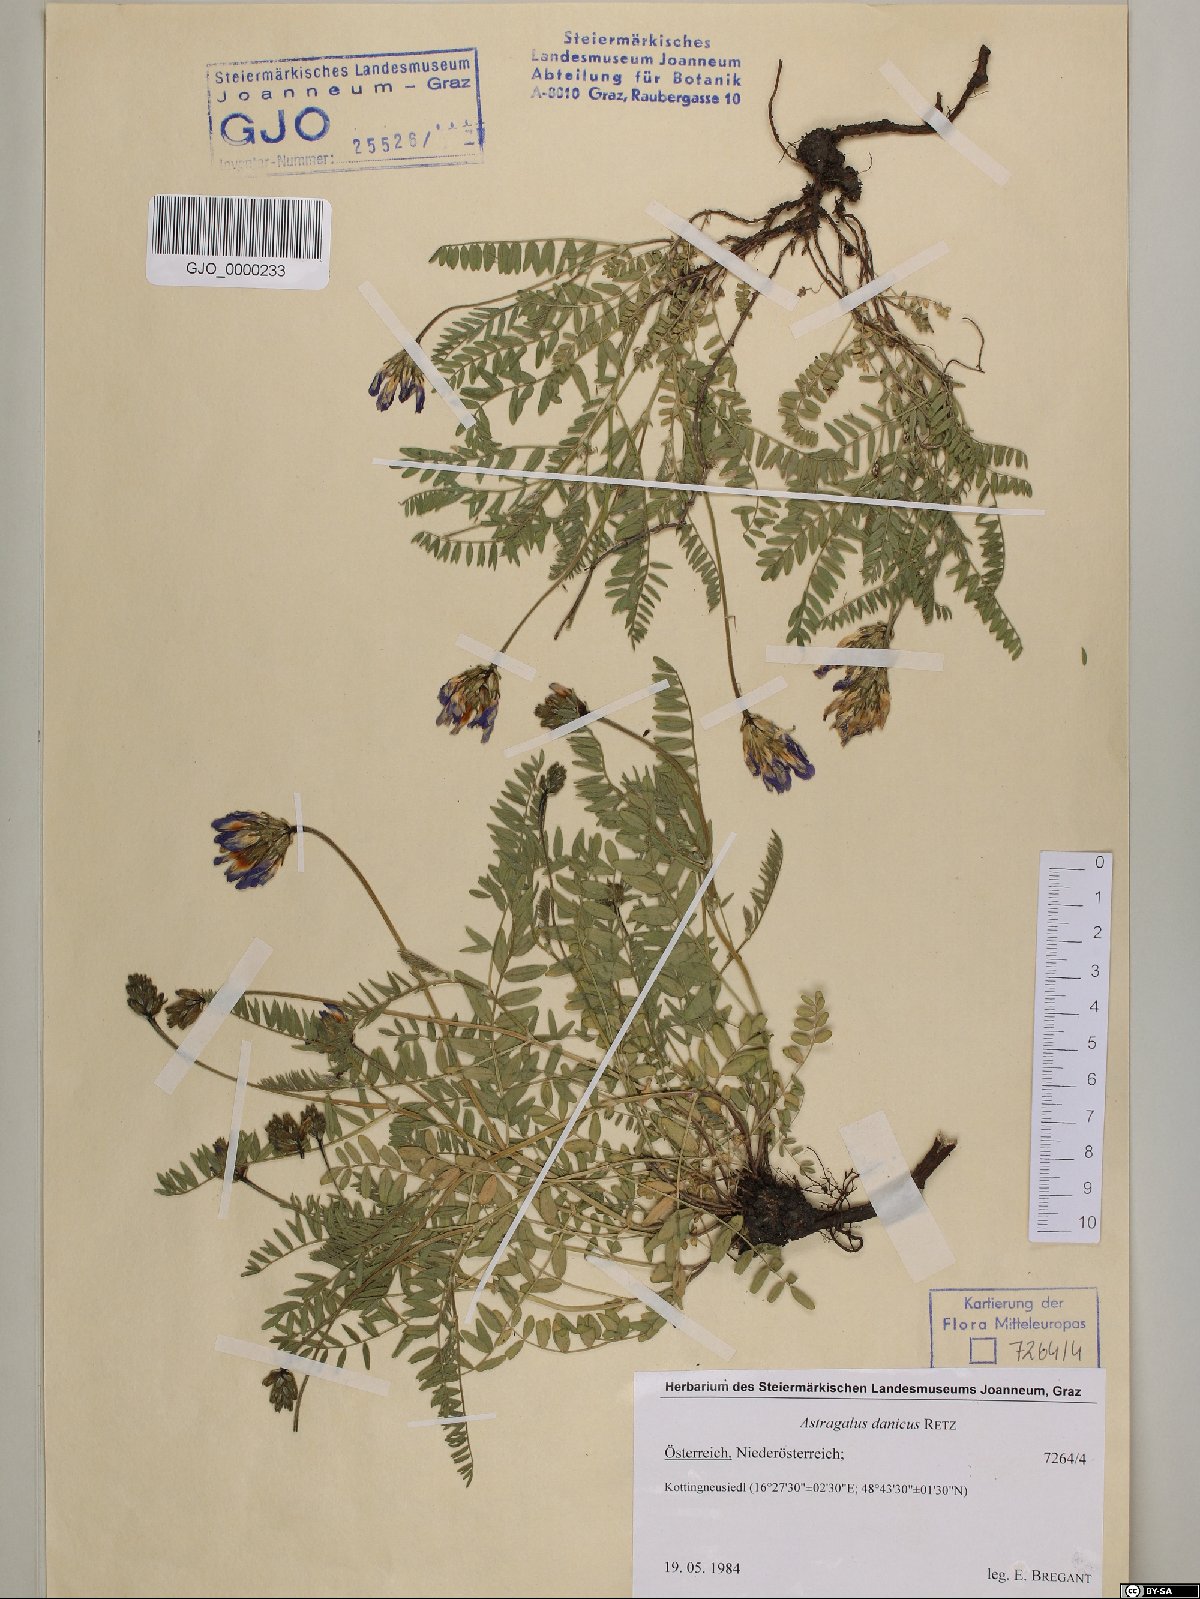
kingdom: Plantae
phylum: Tracheophyta
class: Magnoliopsida
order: Fabales
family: Fabaceae
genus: Astragalus
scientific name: Astragalus danicus
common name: Purple milk-vetch
